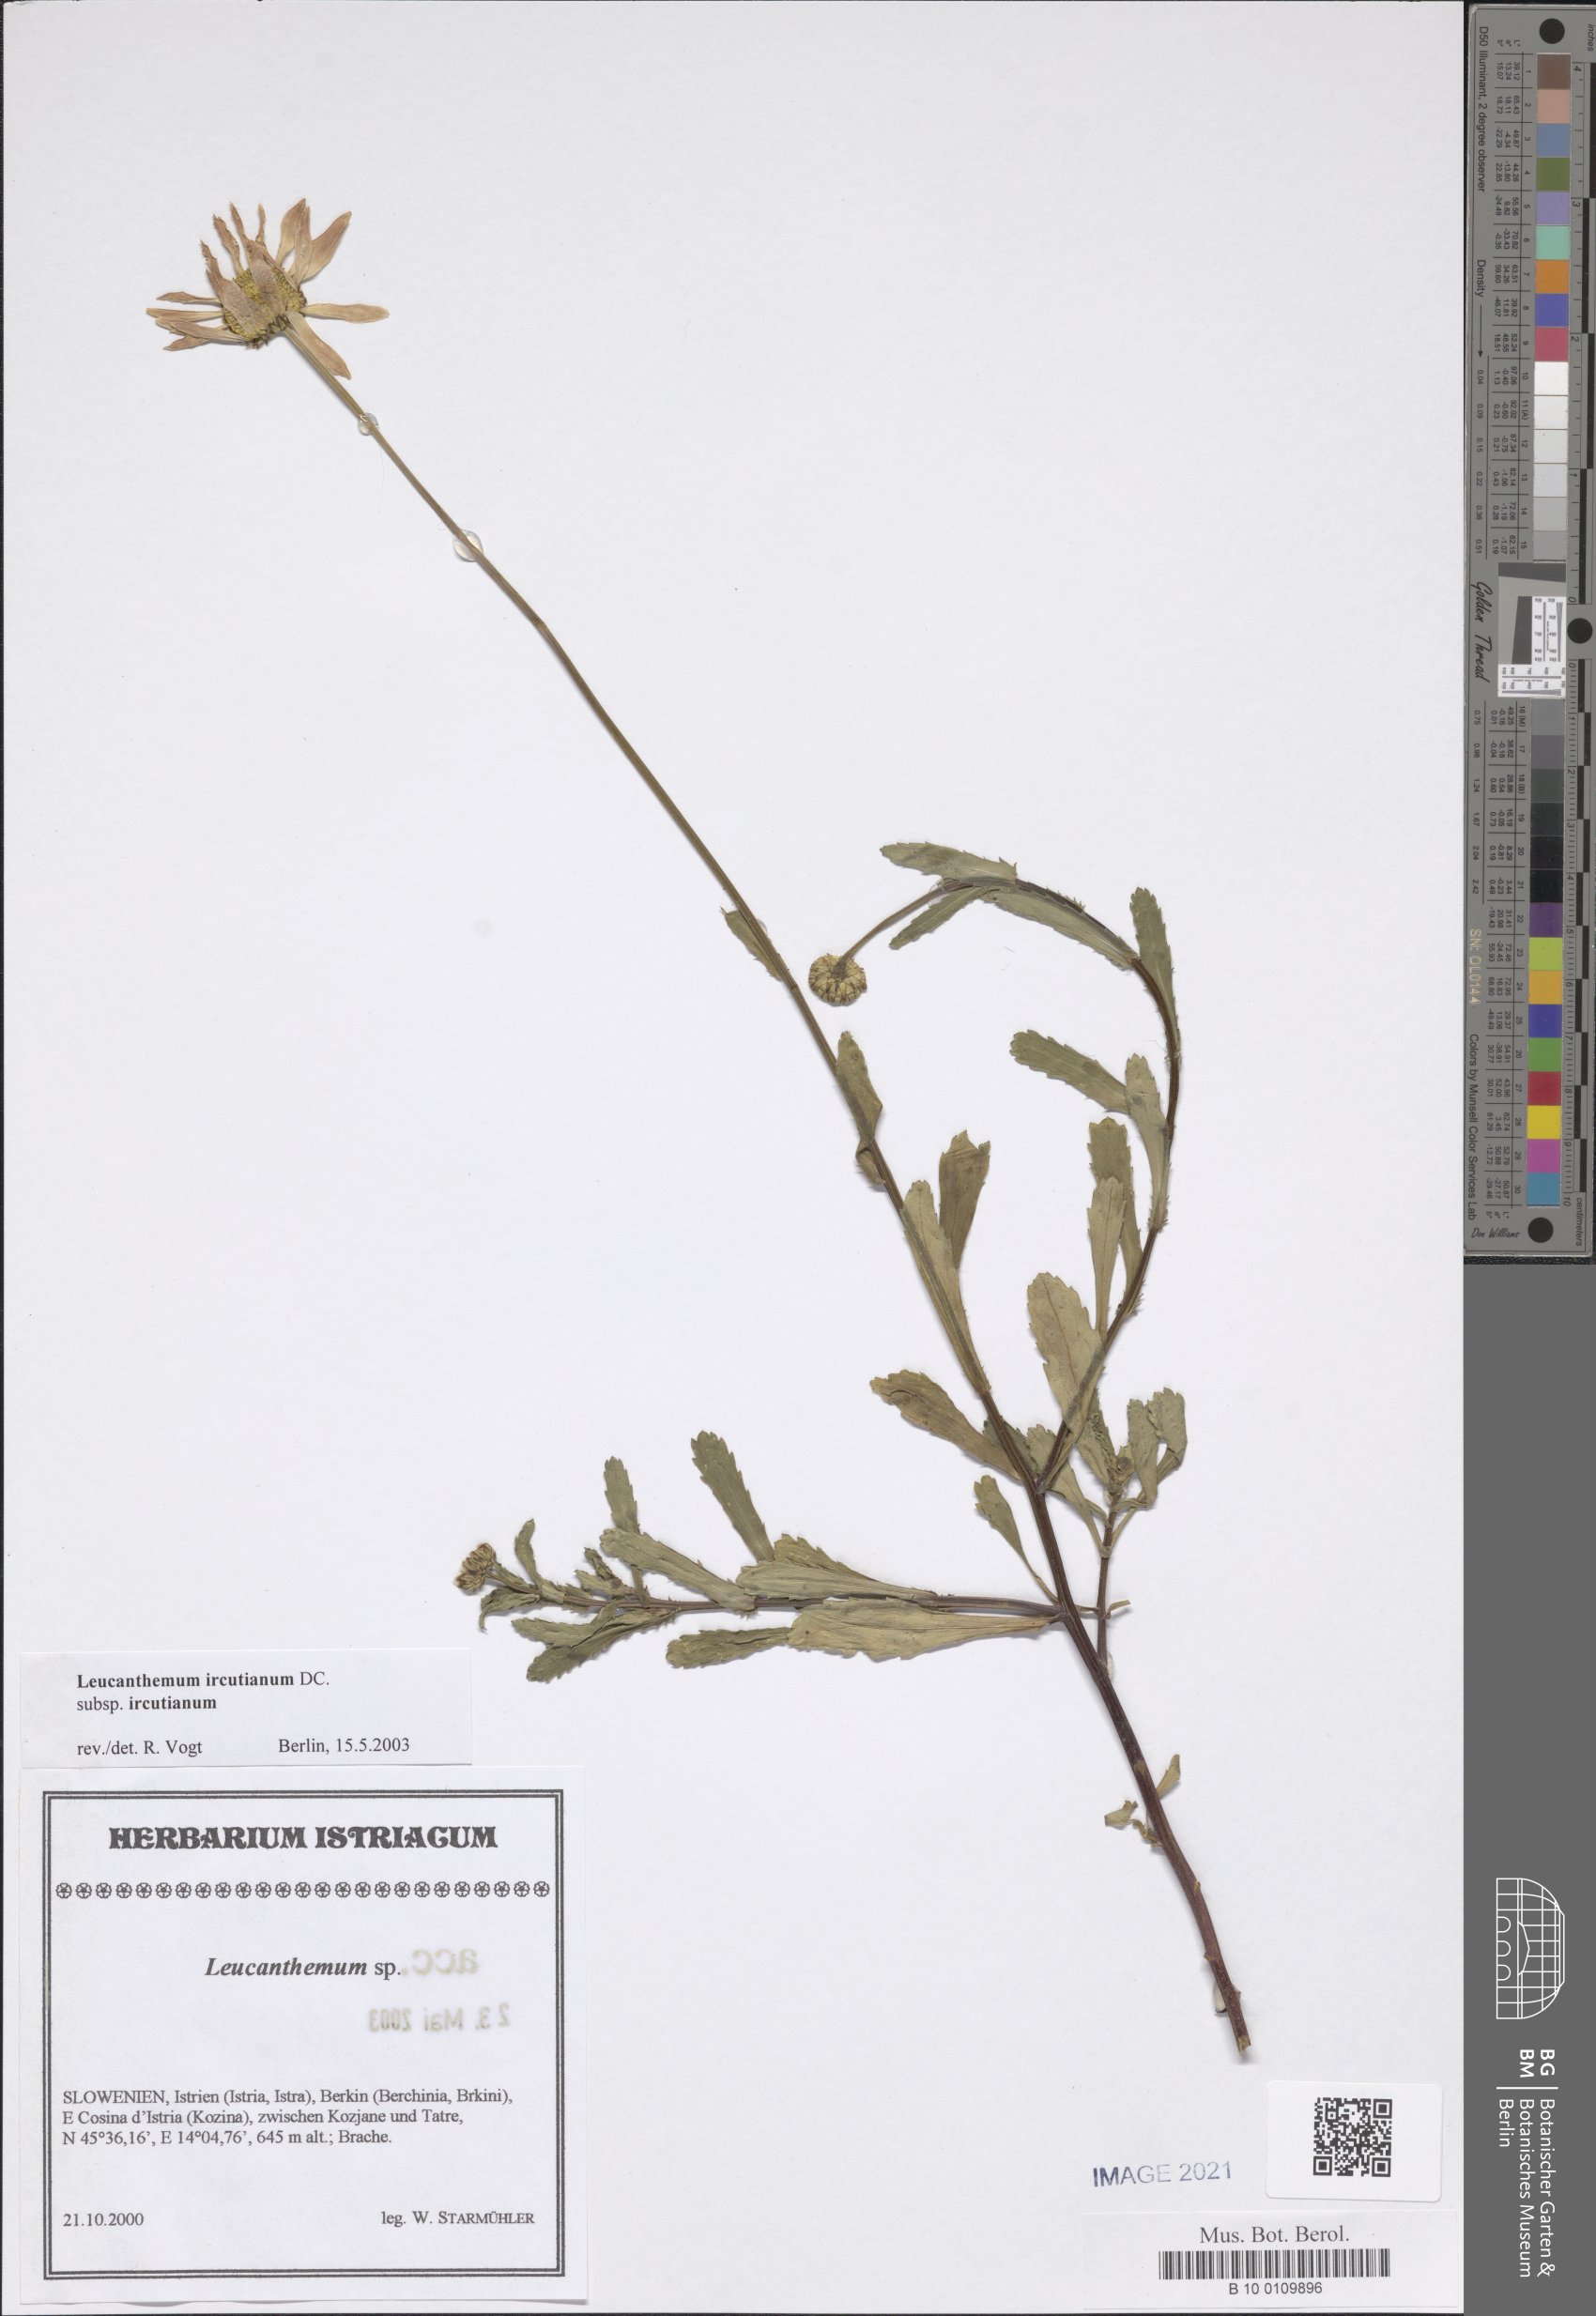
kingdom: Plantae
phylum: Tracheophyta
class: Magnoliopsida
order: Asterales
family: Asteraceae
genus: Leucanthemum
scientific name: Leucanthemum ircutianum
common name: Daisy
